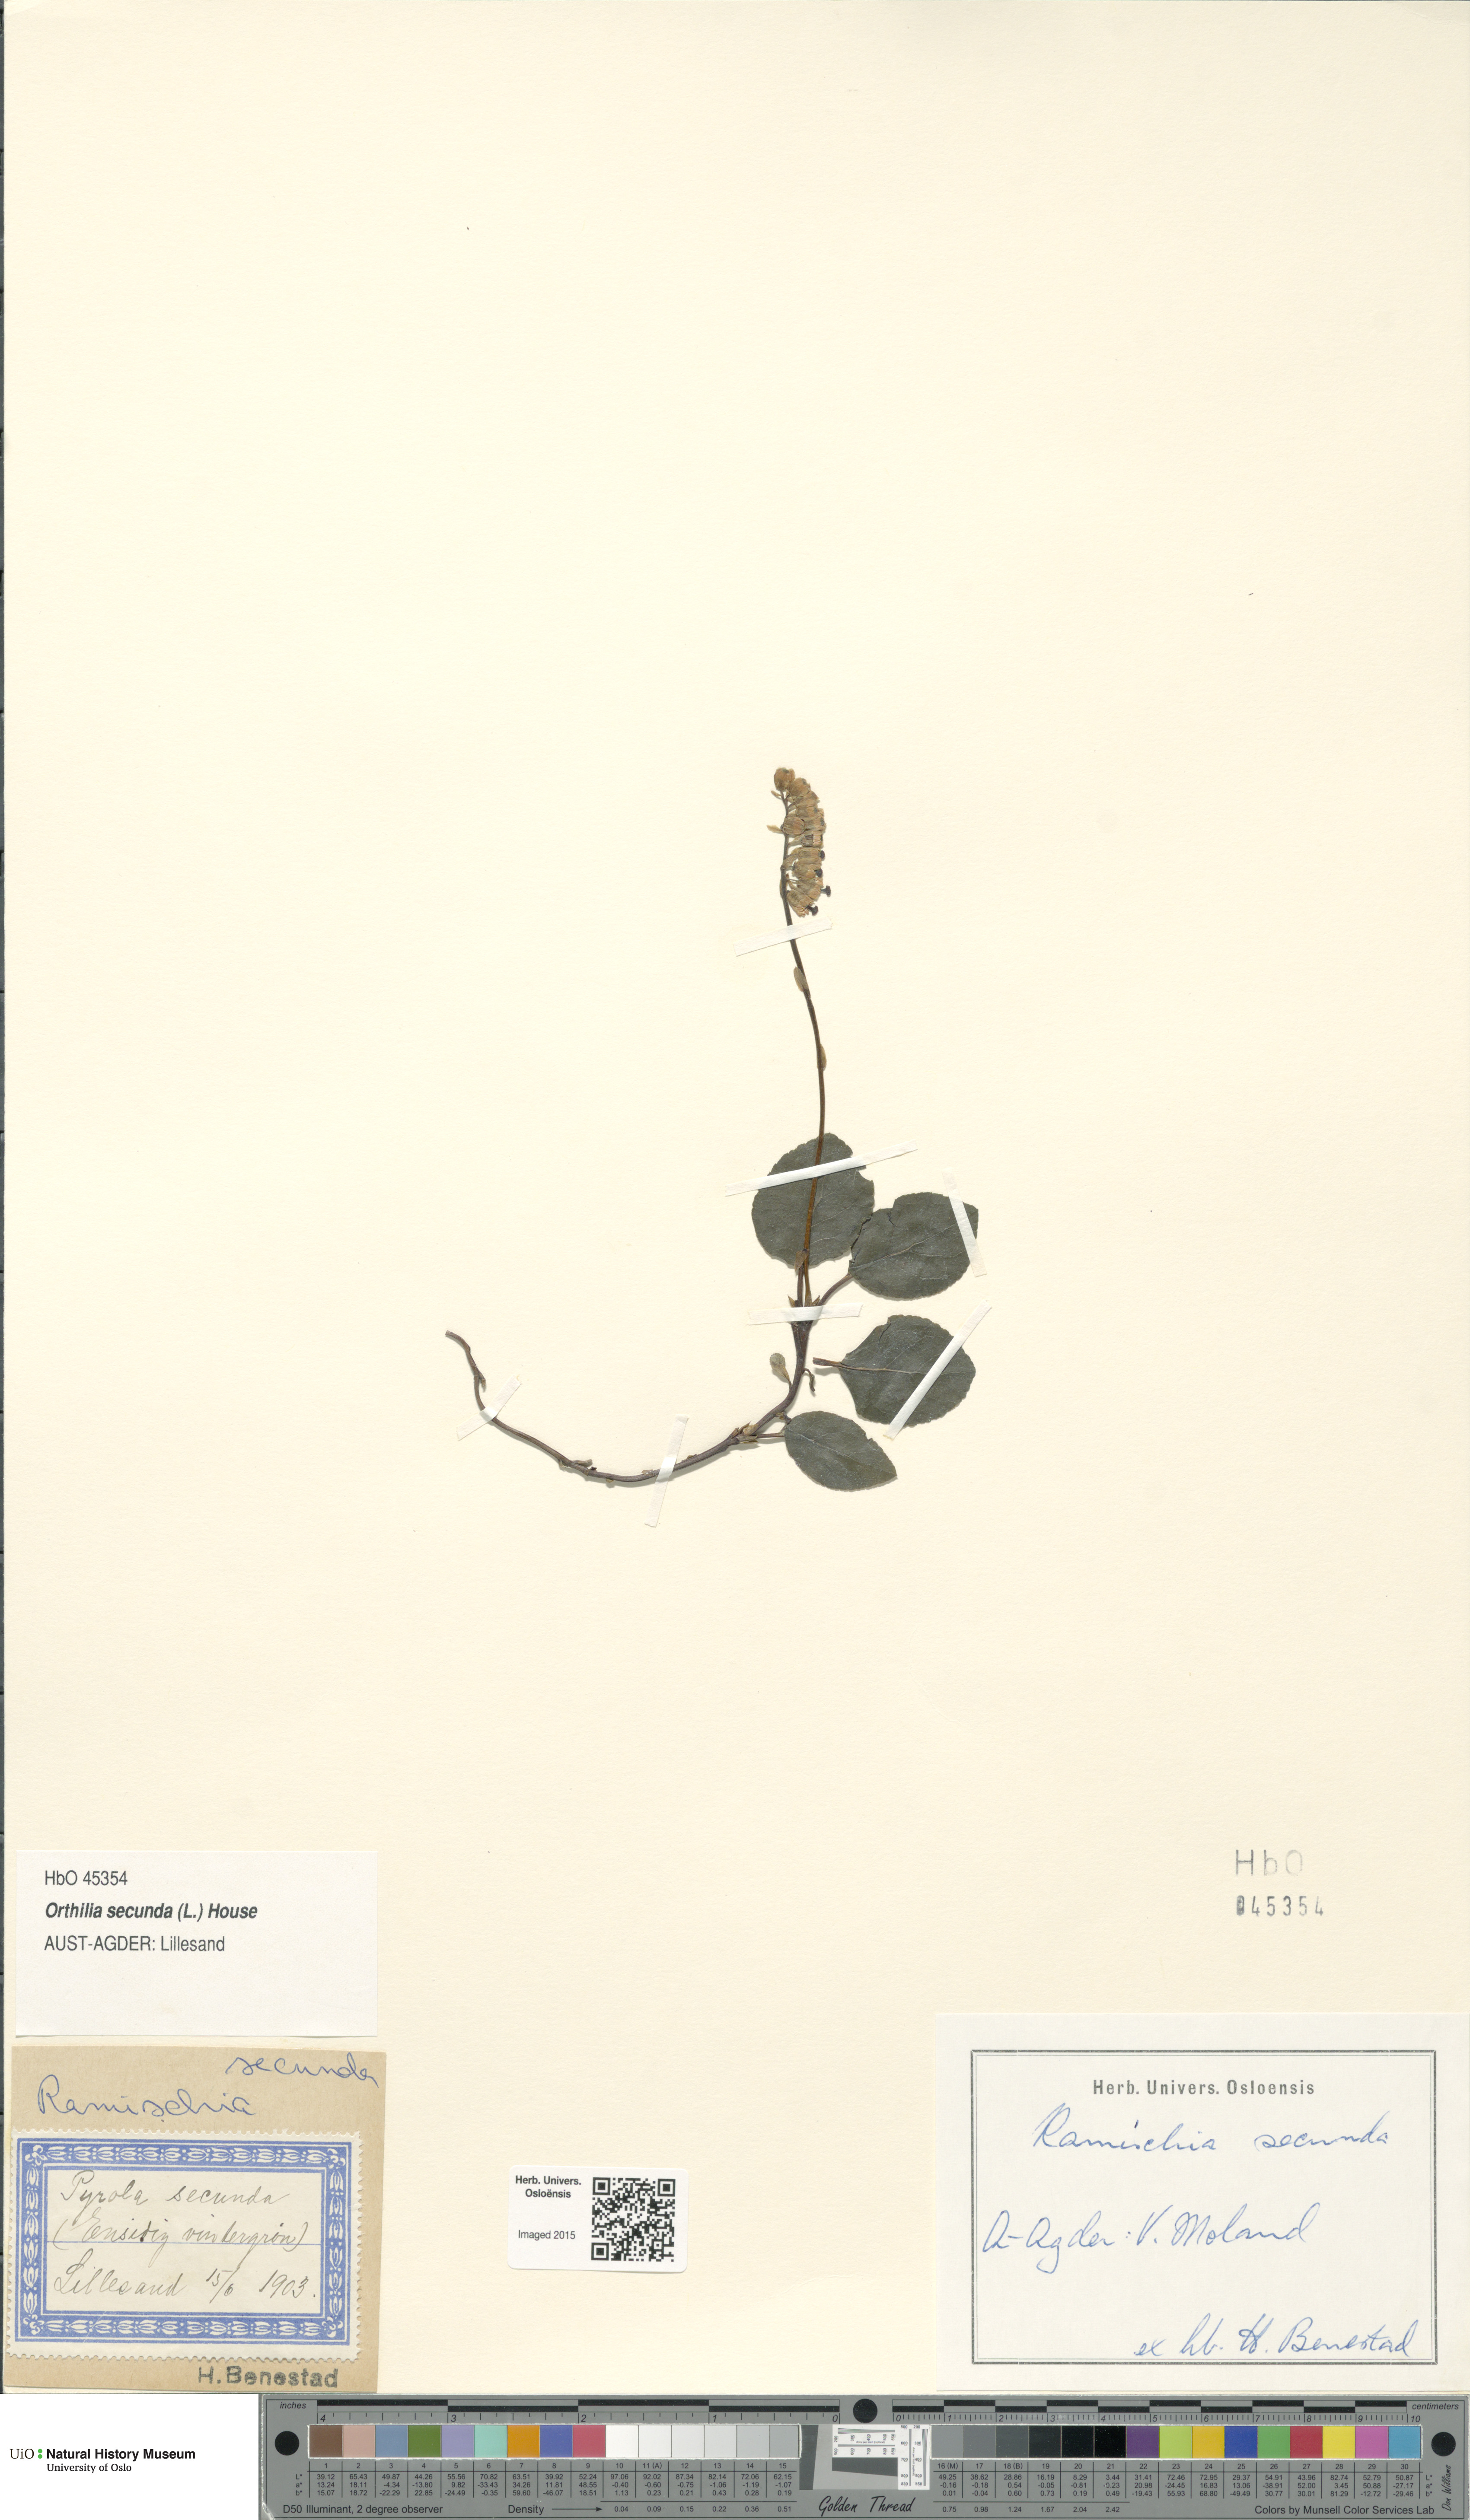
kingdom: Plantae
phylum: Tracheophyta
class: Magnoliopsida
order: Ericales
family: Ericaceae
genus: Orthilia
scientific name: Orthilia secunda
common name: One-sided orthilia
